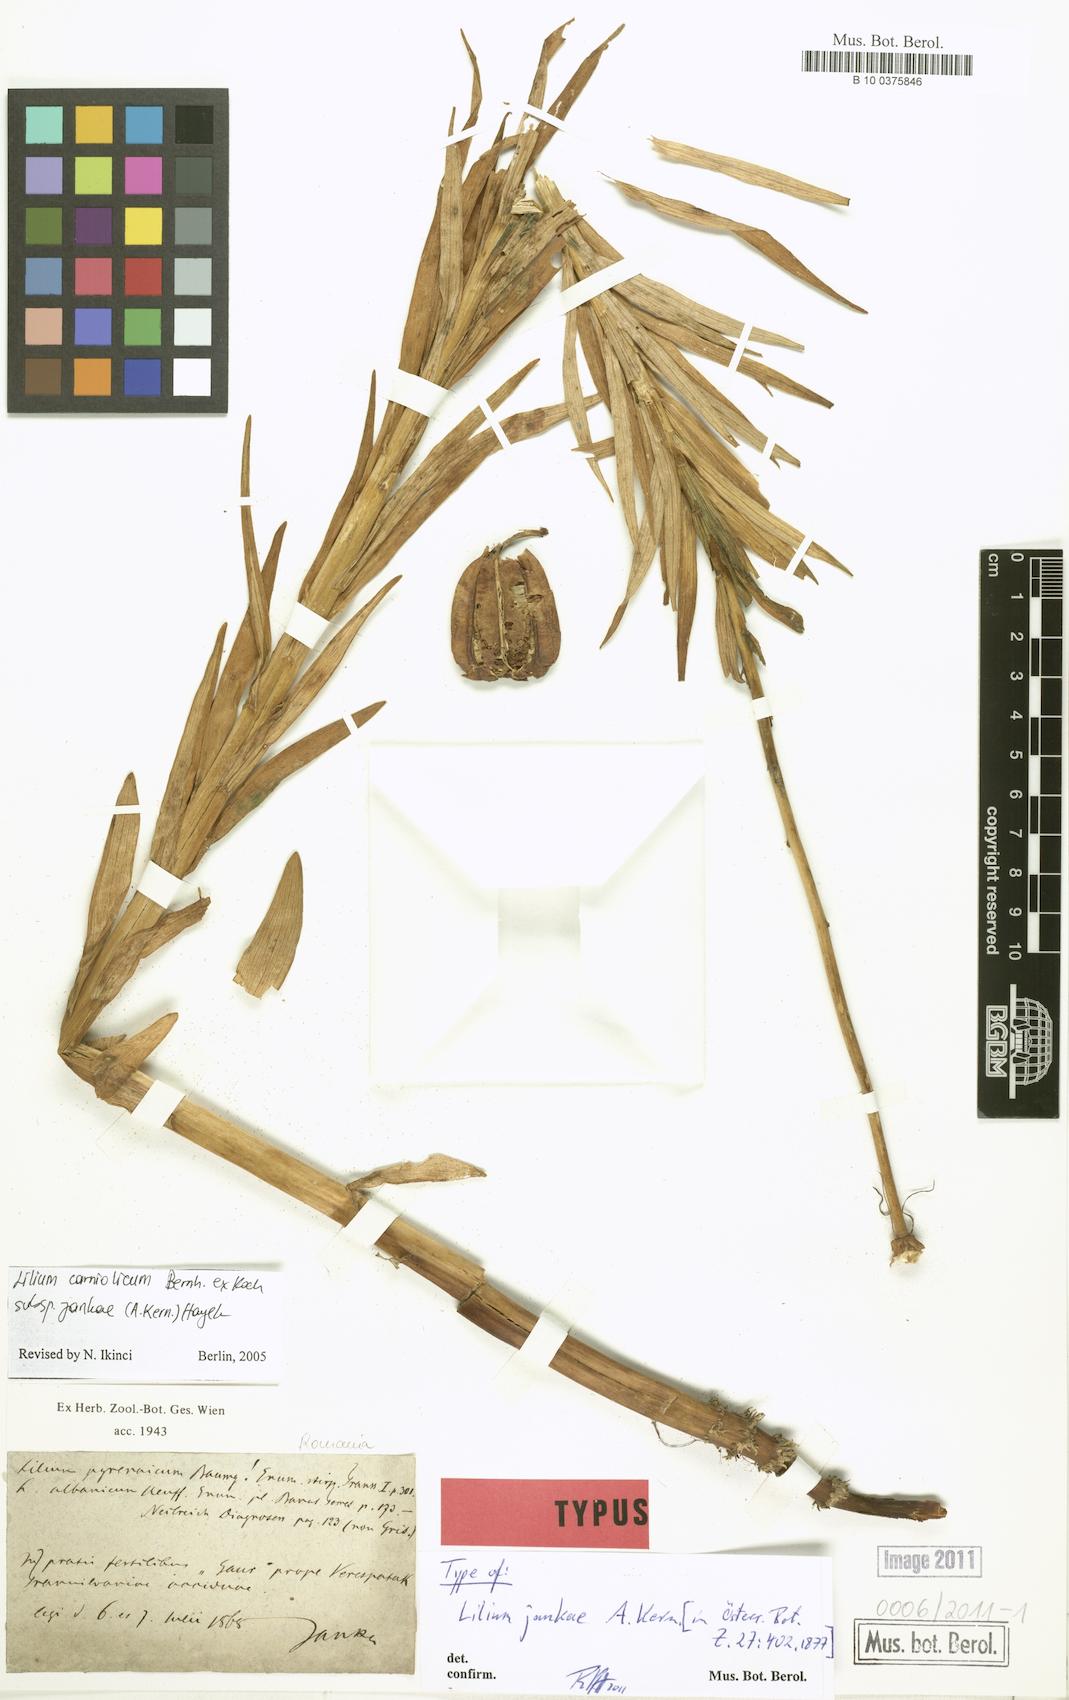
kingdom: Plantae
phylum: Tracheophyta
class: Liliopsida
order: Liliales
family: Liliaceae
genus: Lilium
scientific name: Lilium jankae
